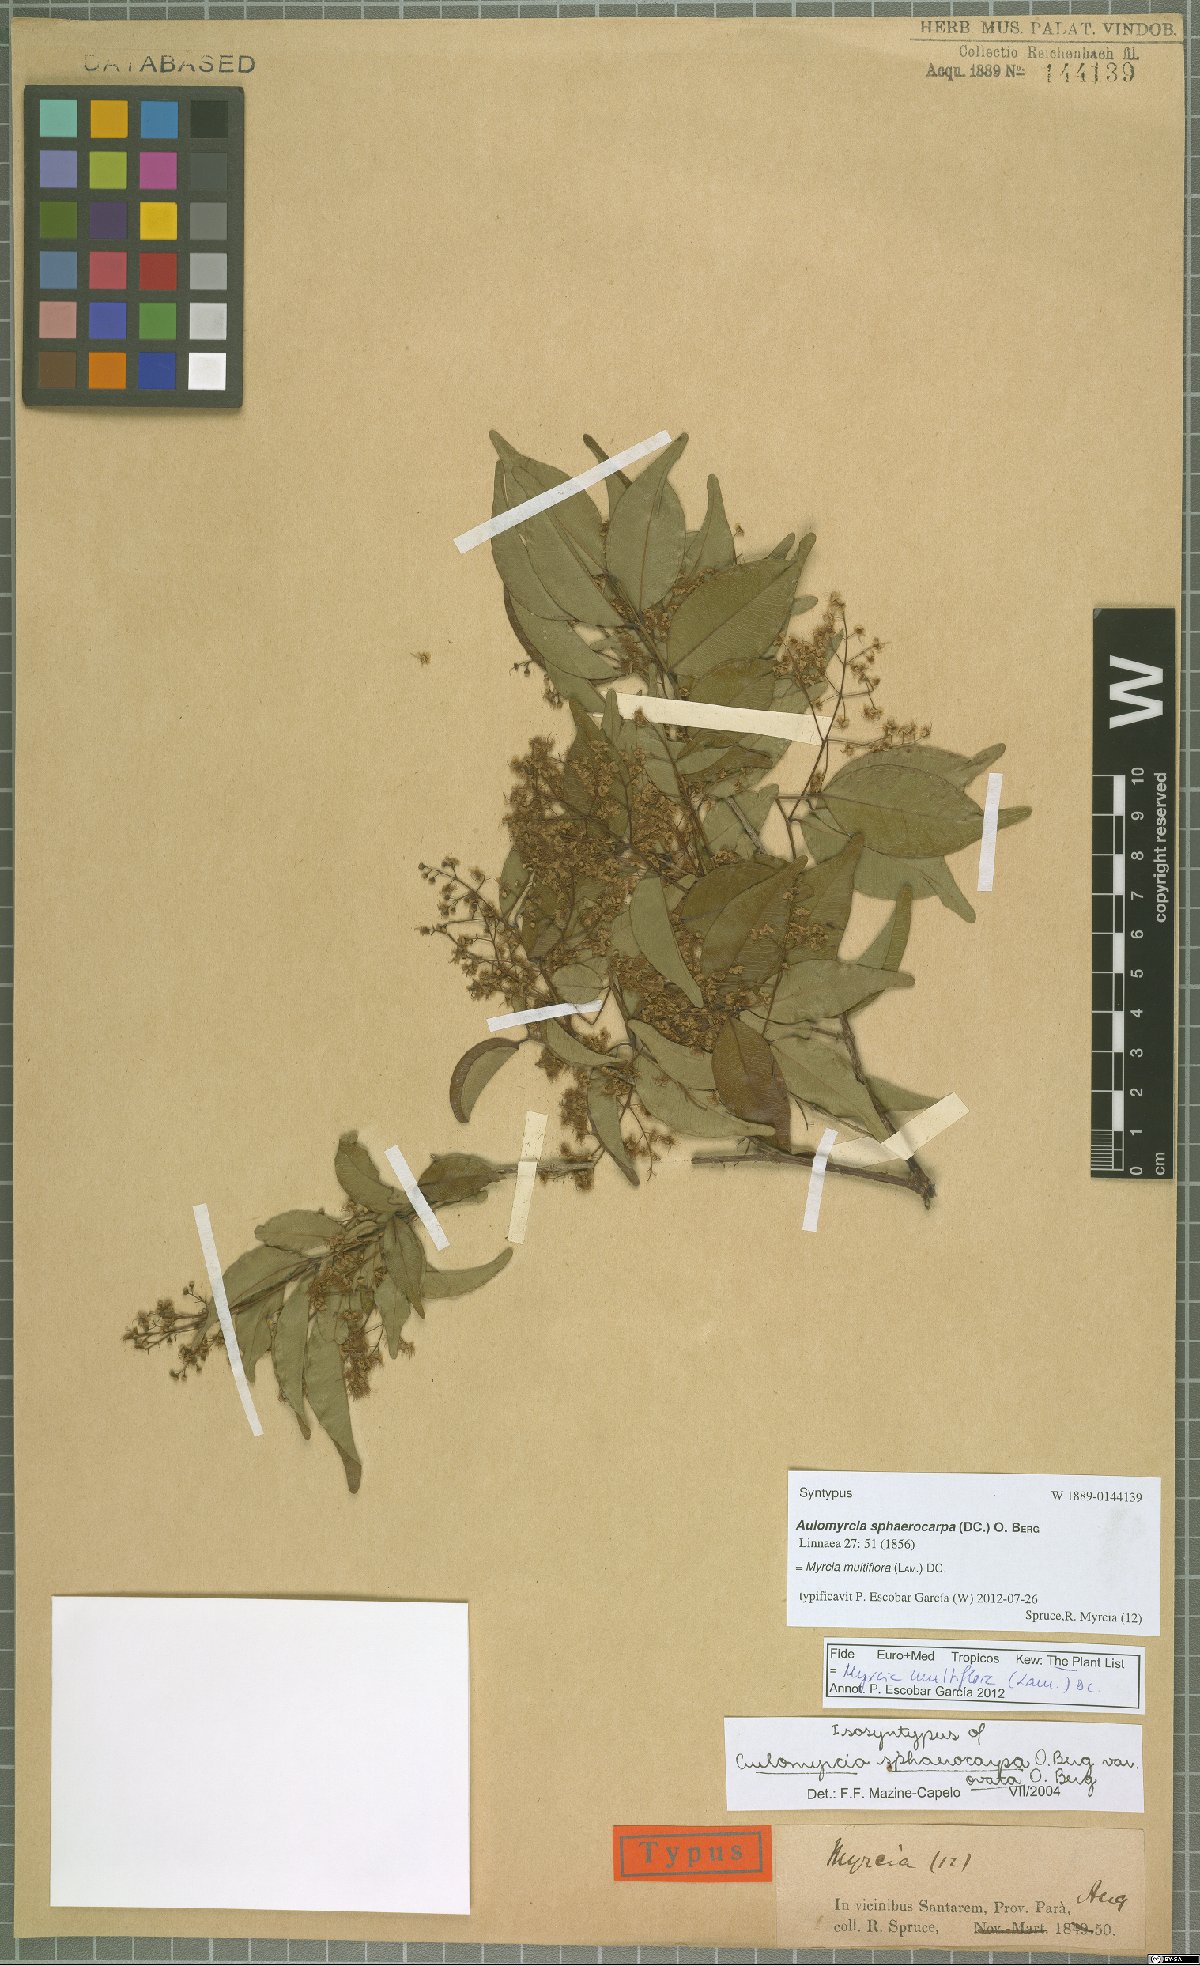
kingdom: Plantae
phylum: Tracheophyta
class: Magnoliopsida
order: Myrtales
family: Myrtaceae
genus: Myrcia
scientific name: Myrcia multiflora
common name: Pedra hume
